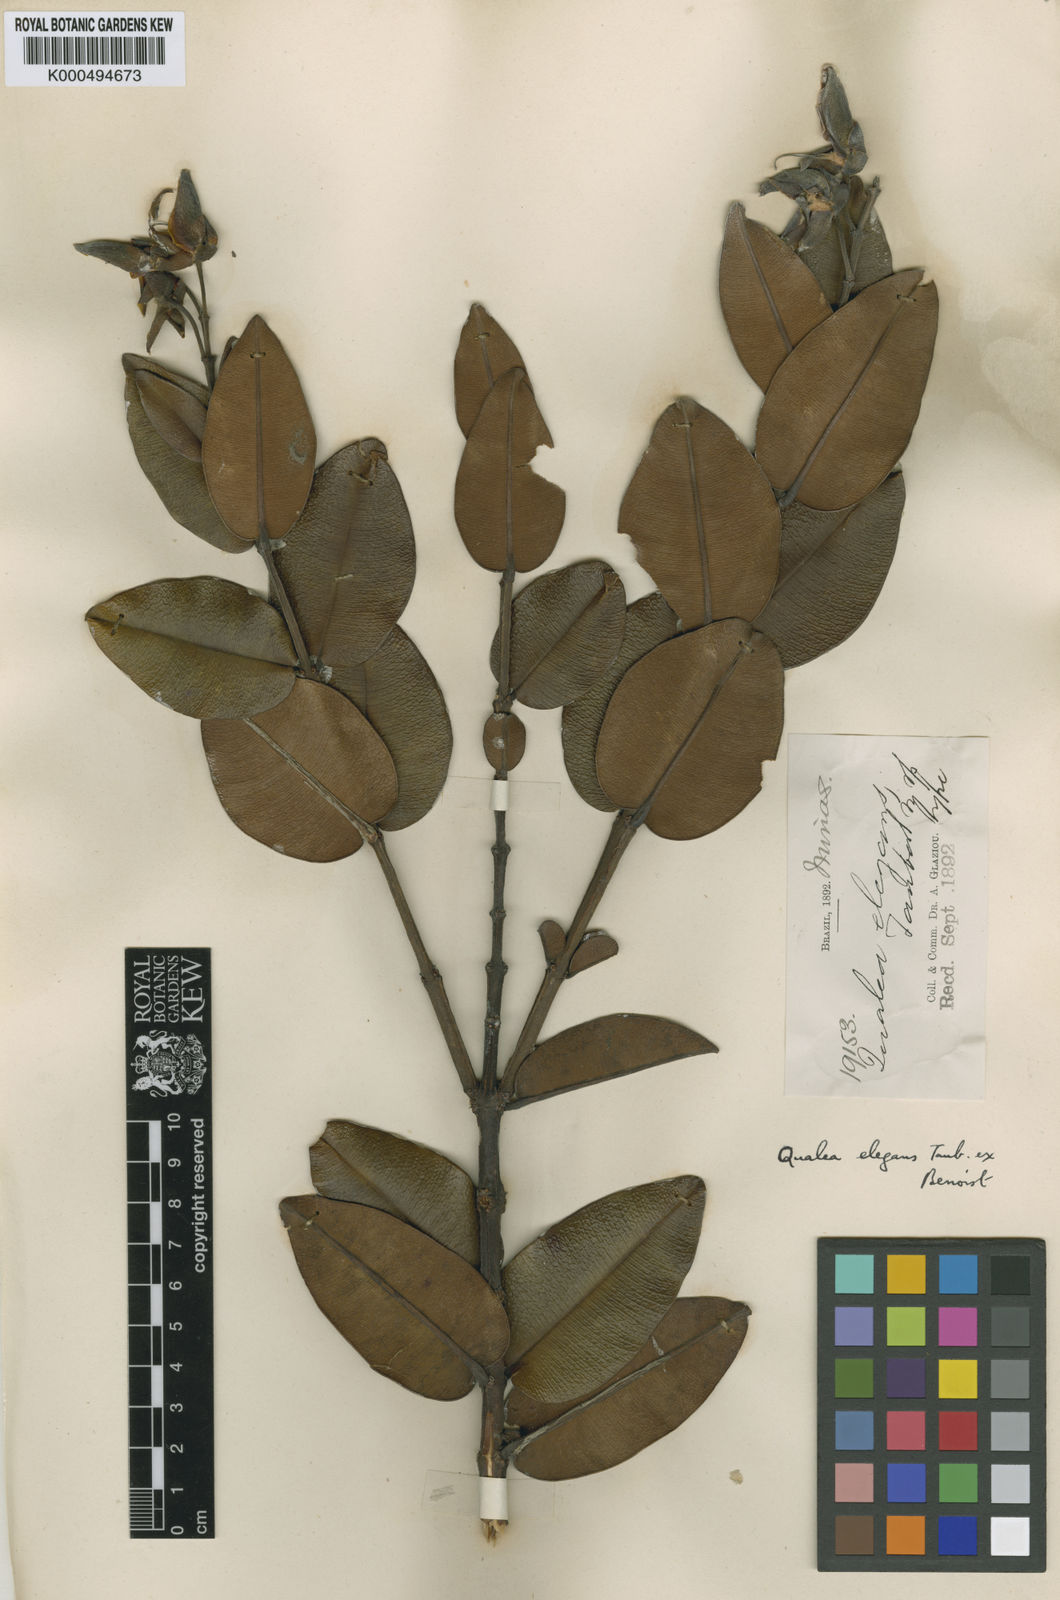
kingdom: Plantae
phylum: Tracheophyta
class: Magnoliopsida
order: Myrtales
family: Vochysiaceae
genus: Qualea
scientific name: Qualea elegans
